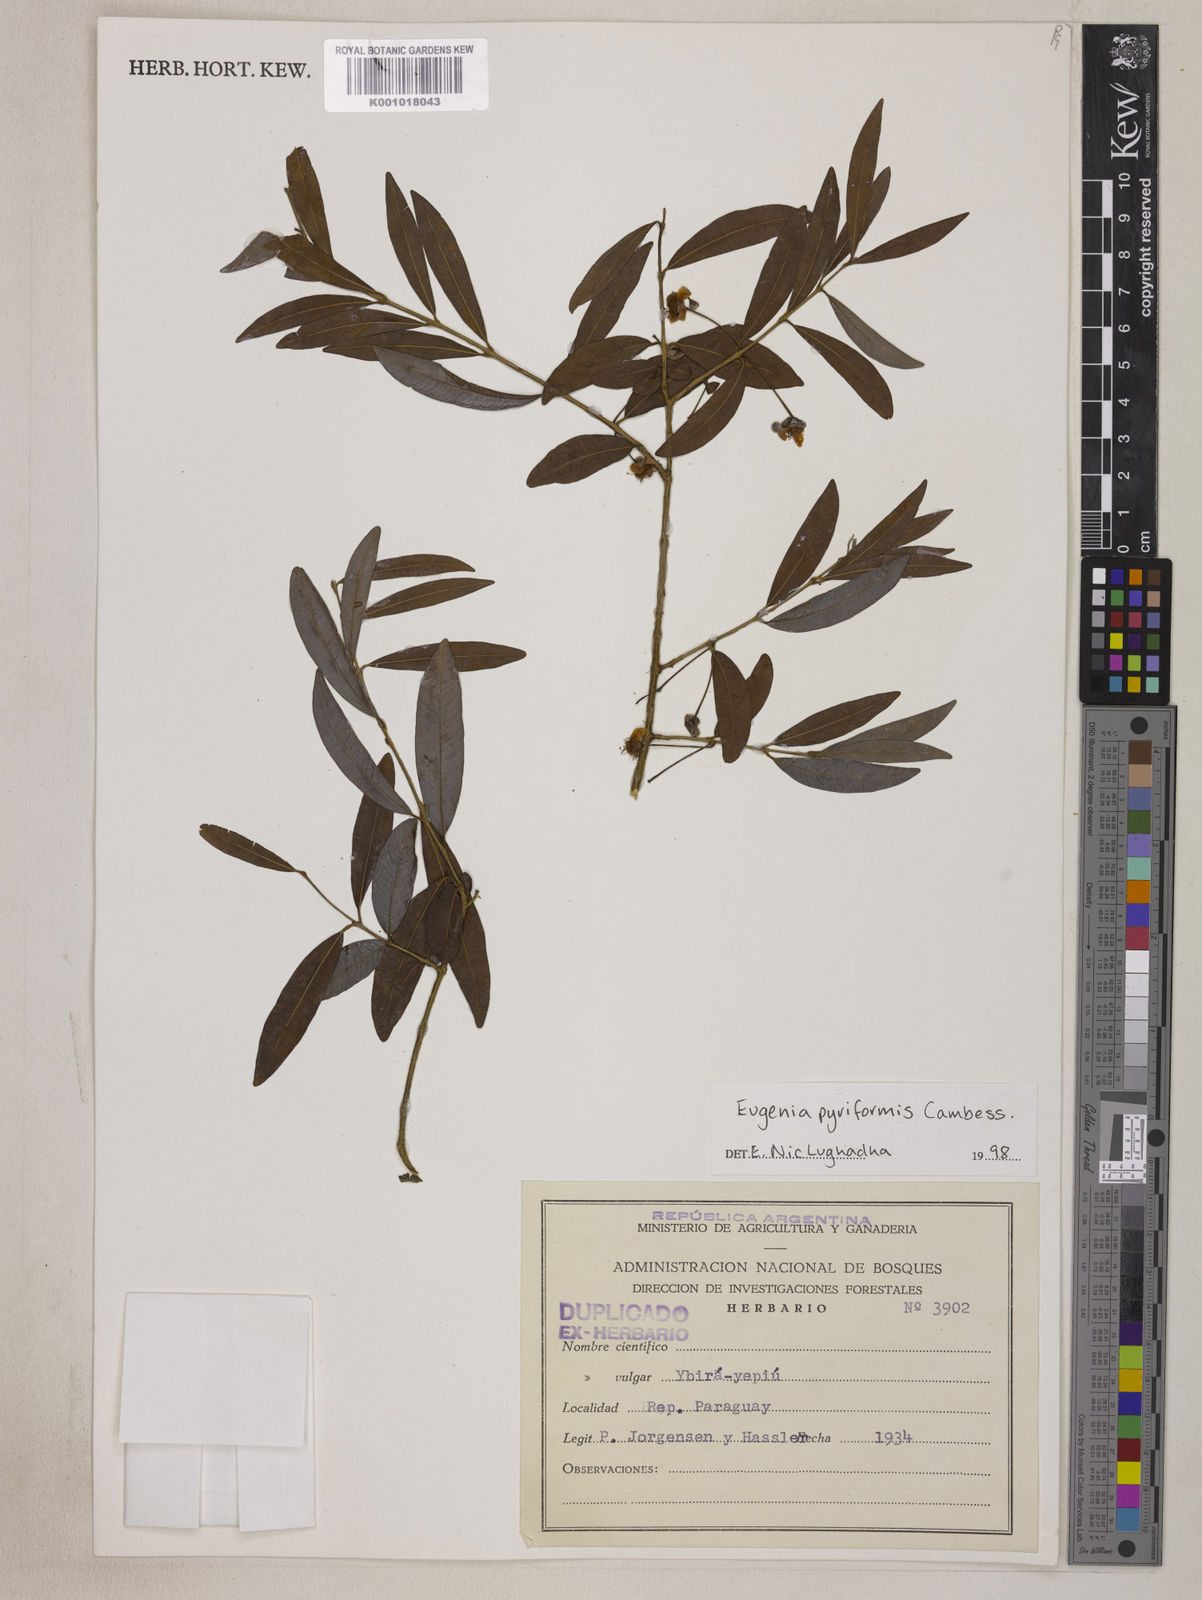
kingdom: Plantae
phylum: Tracheophyta
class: Magnoliopsida
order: Myrtales
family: Myrtaceae
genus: Eugenia
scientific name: Eugenia pyriformis
